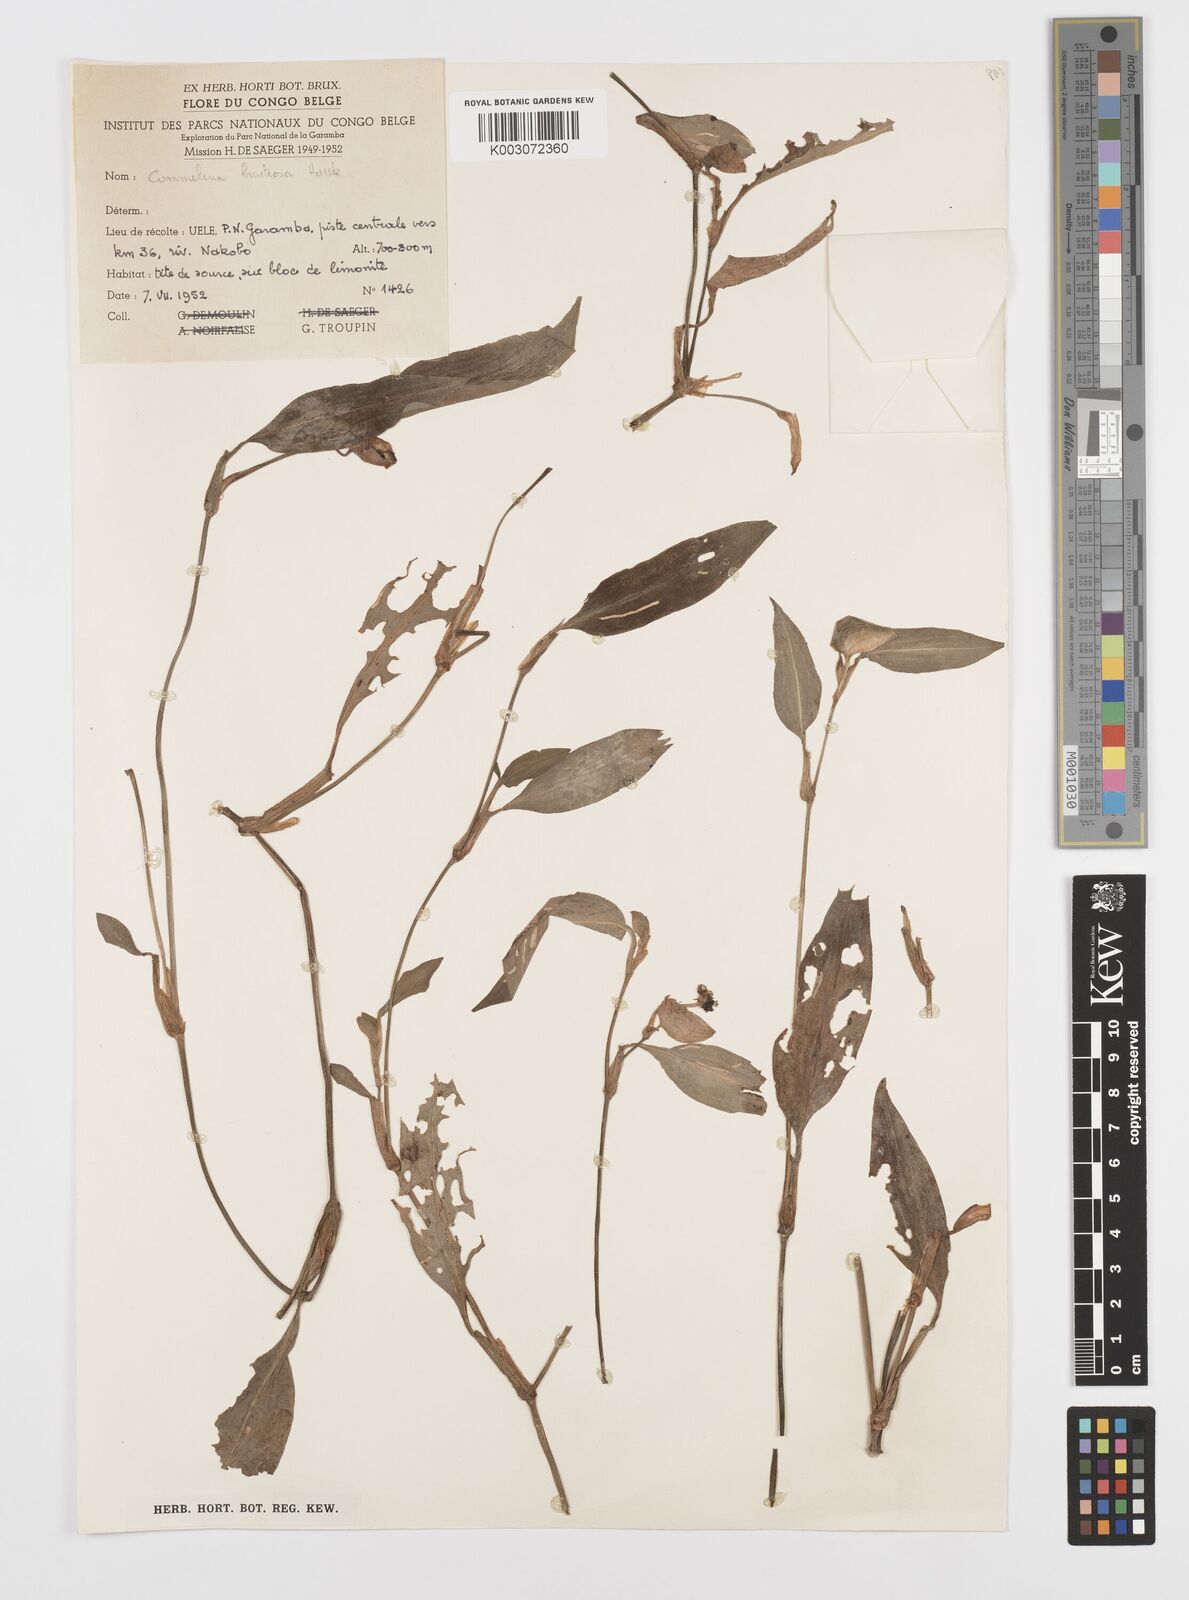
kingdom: Plantae
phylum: Tracheophyta
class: Liliopsida
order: Commelinales
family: Commelinaceae
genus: Commelina
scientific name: Commelina bracteosa
